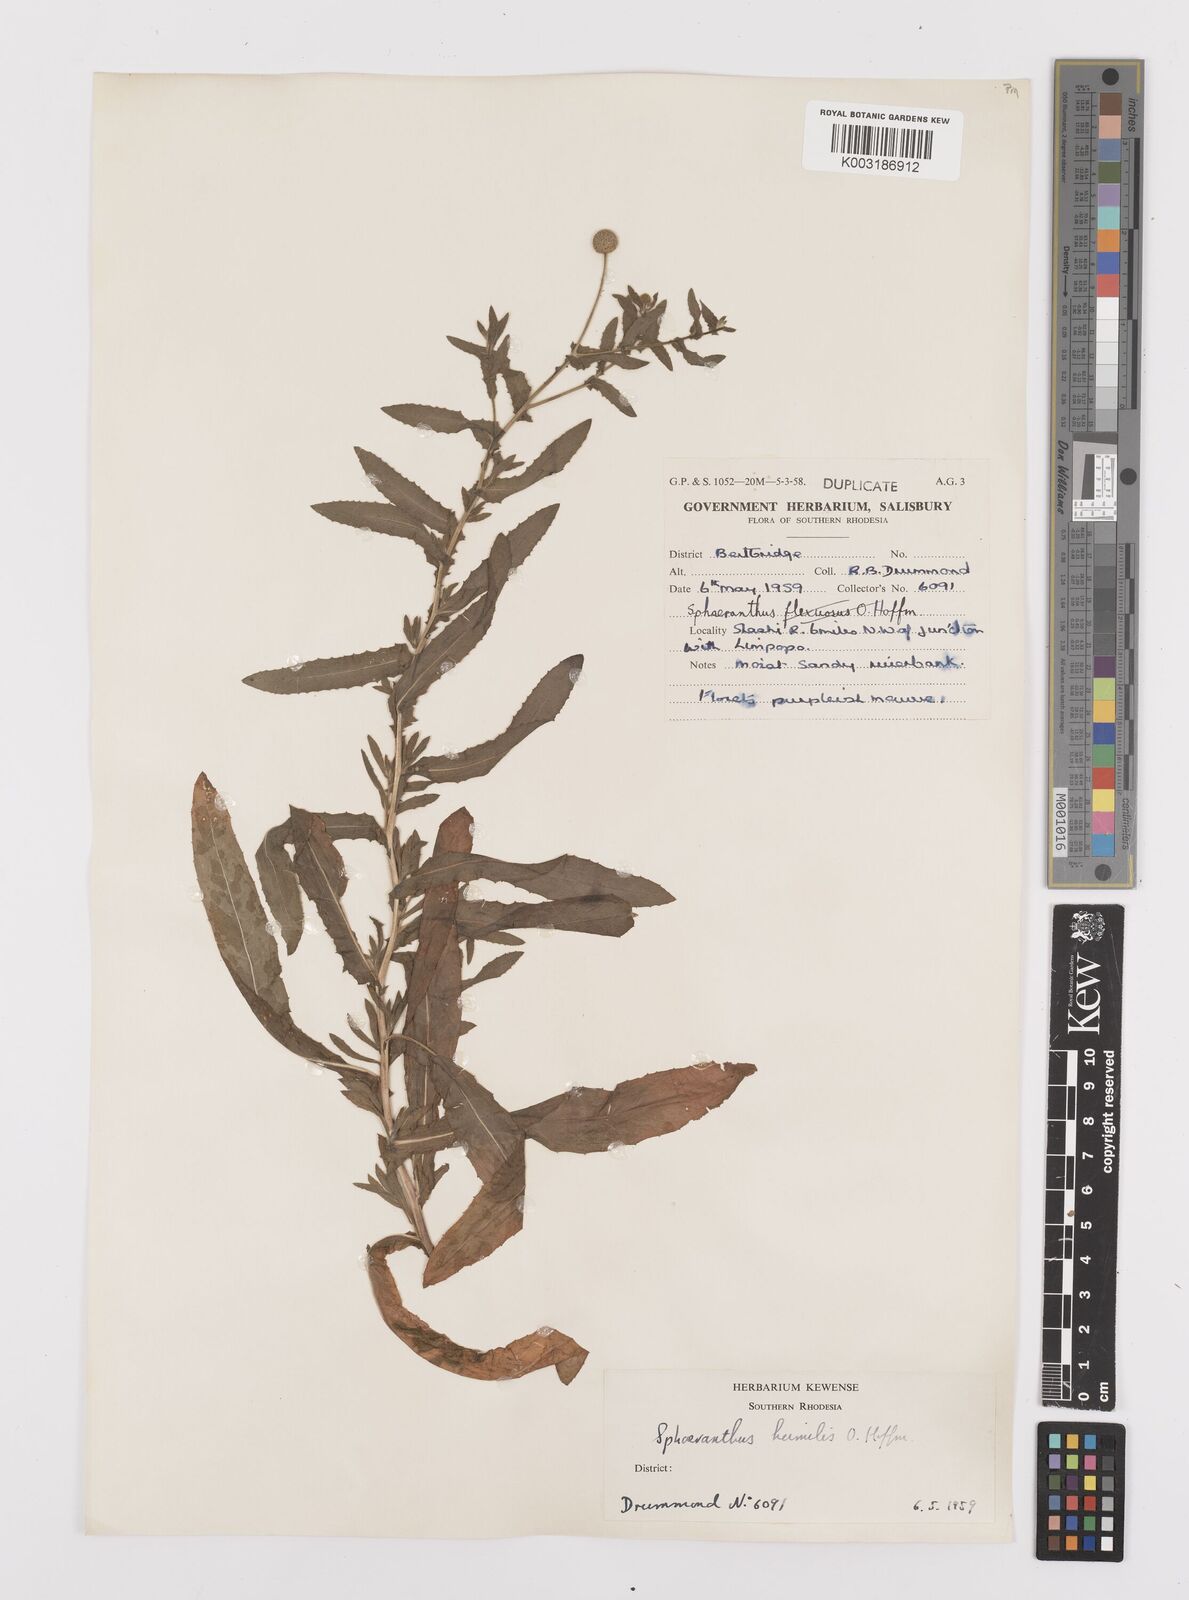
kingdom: Plantae
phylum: Tracheophyta
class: Magnoliopsida
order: Asterales
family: Asteraceae
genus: Sphaeranthus
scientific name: Sphaeranthus flexuosus
